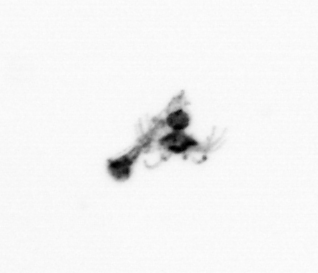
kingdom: Animalia
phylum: Cnidaria
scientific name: Cnidaria
